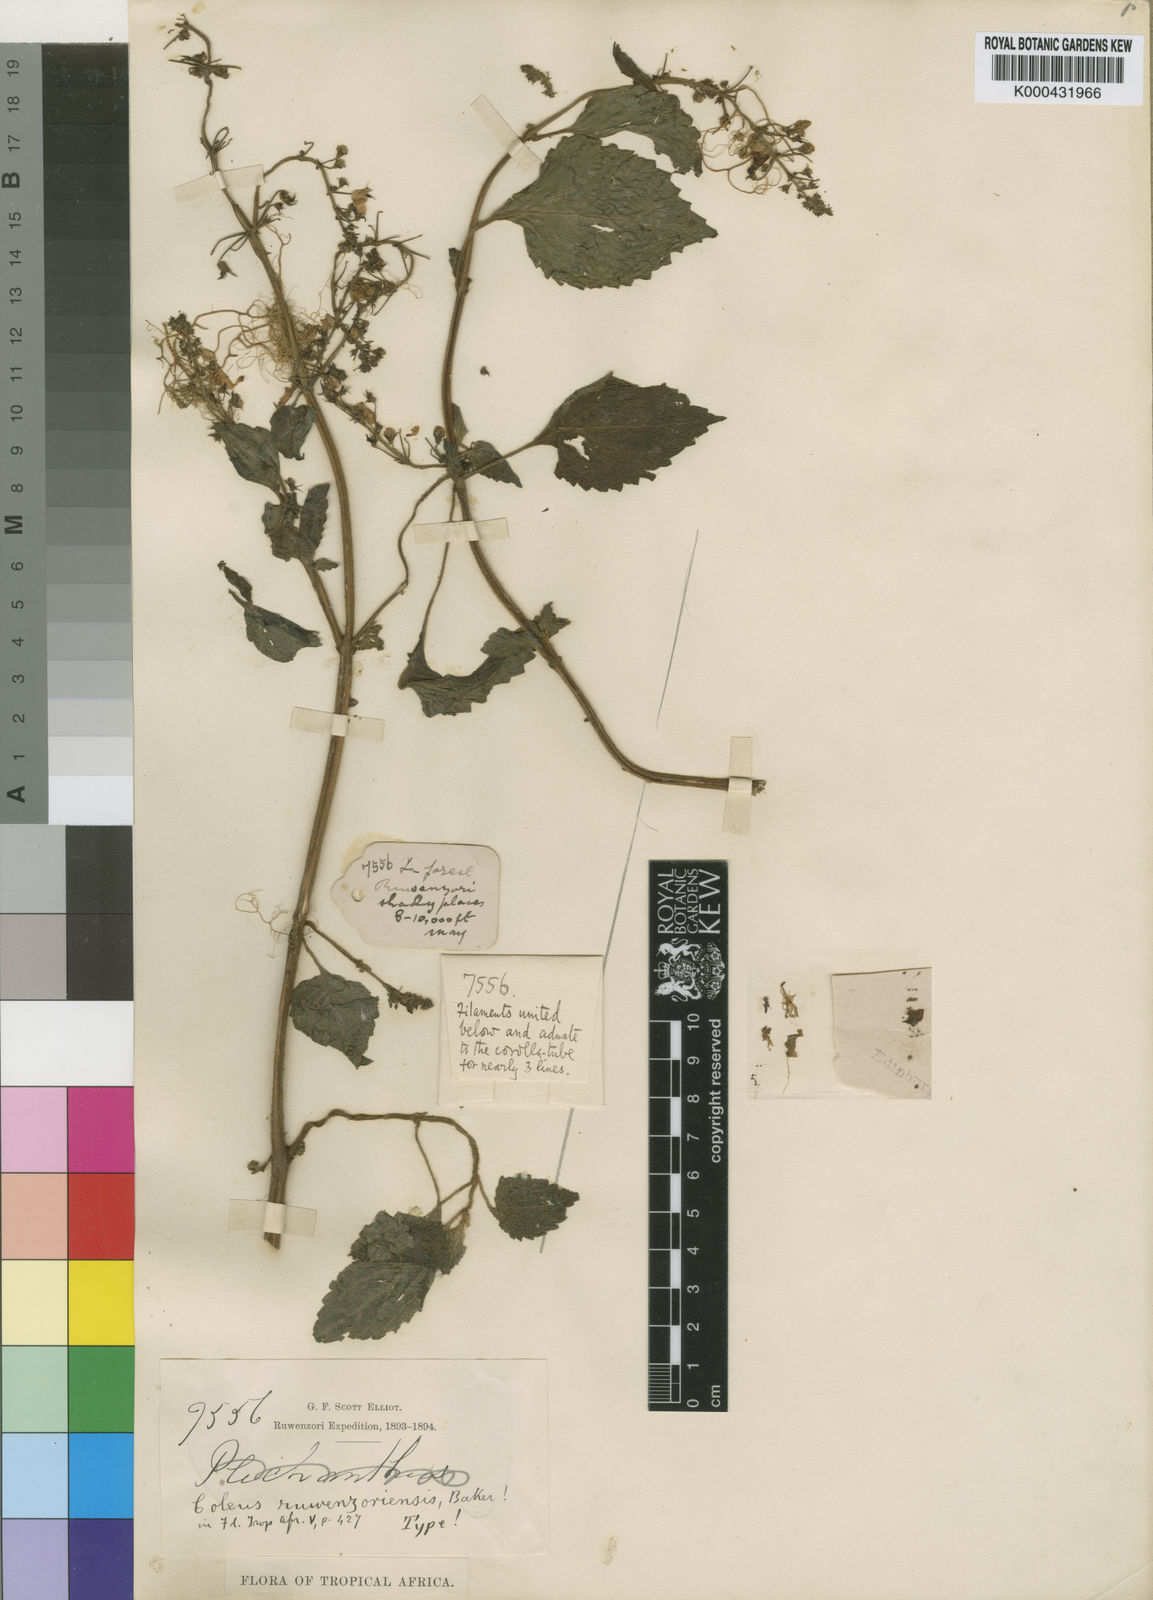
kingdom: Plantae
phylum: Tracheophyta
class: Magnoliopsida
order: Lamiales
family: Lamiaceae
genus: Plectranthus
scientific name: Plectranthus
